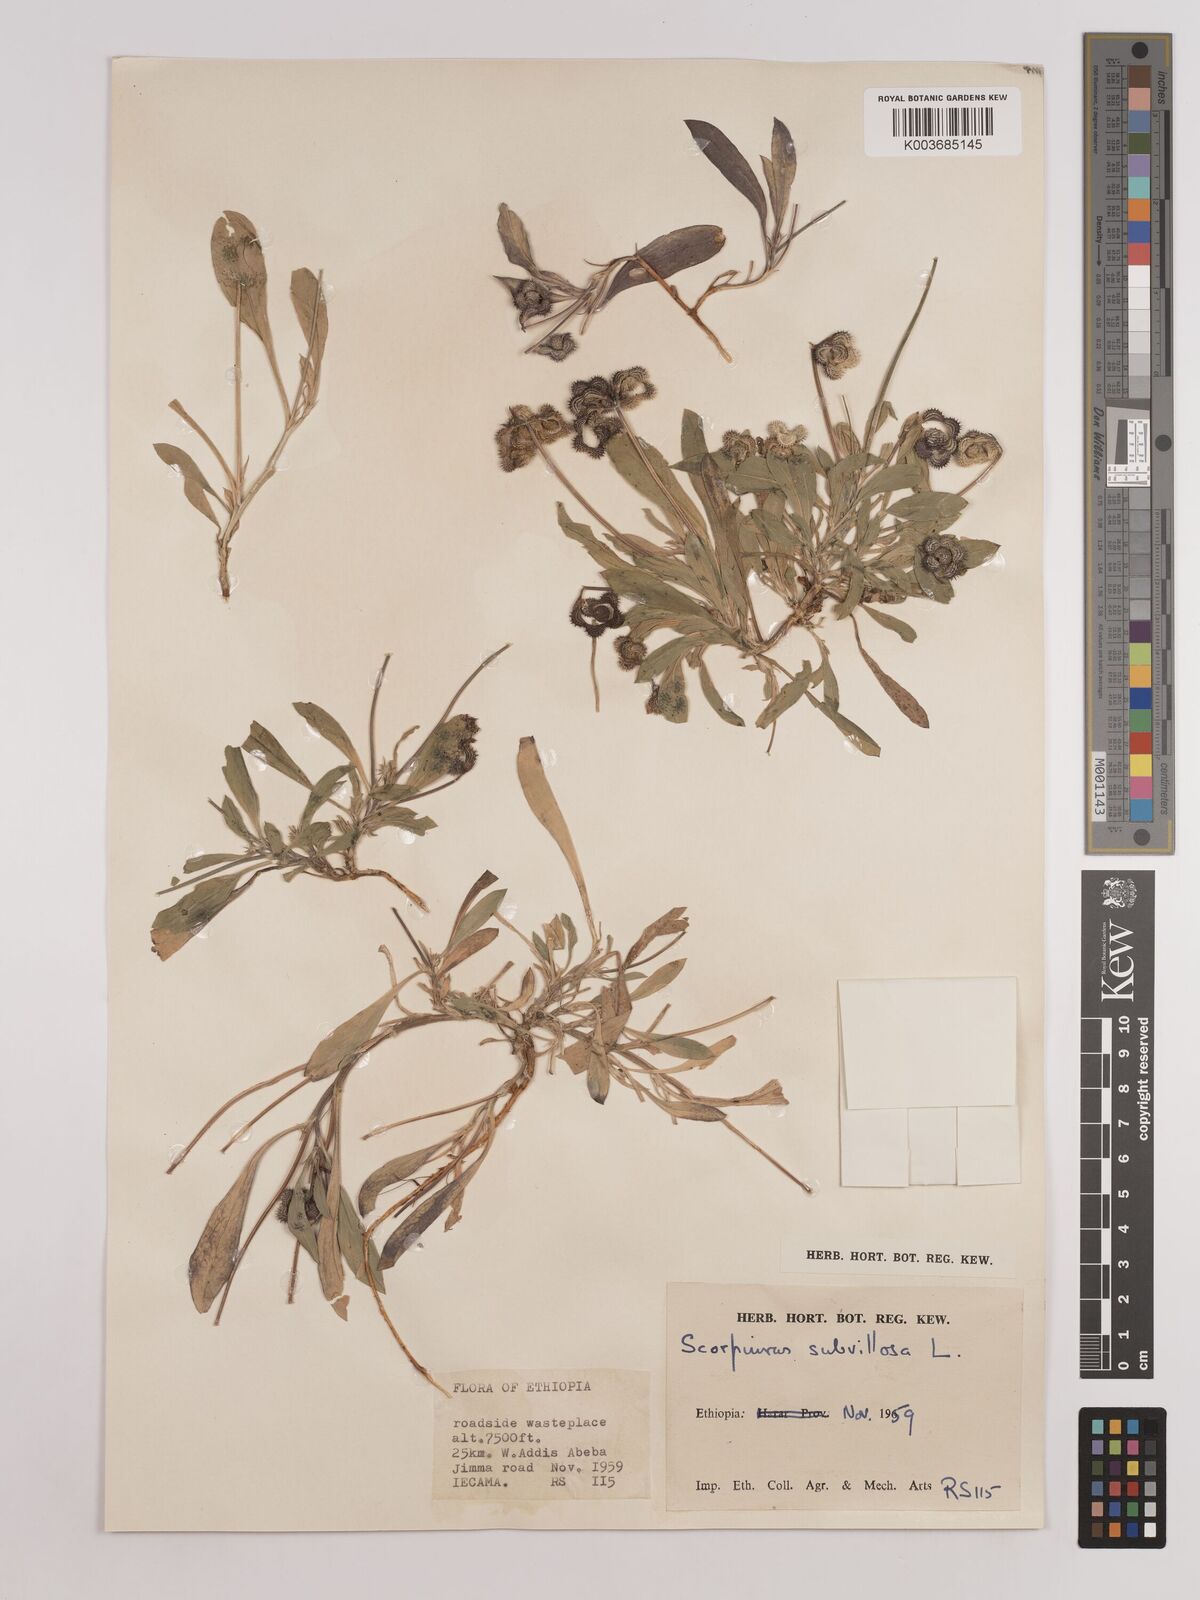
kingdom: Plantae
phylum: Tracheophyta
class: Magnoliopsida
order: Fabales
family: Fabaceae
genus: Scorpiurus
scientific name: Scorpiurus muricatus
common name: Caterpillar-plant
